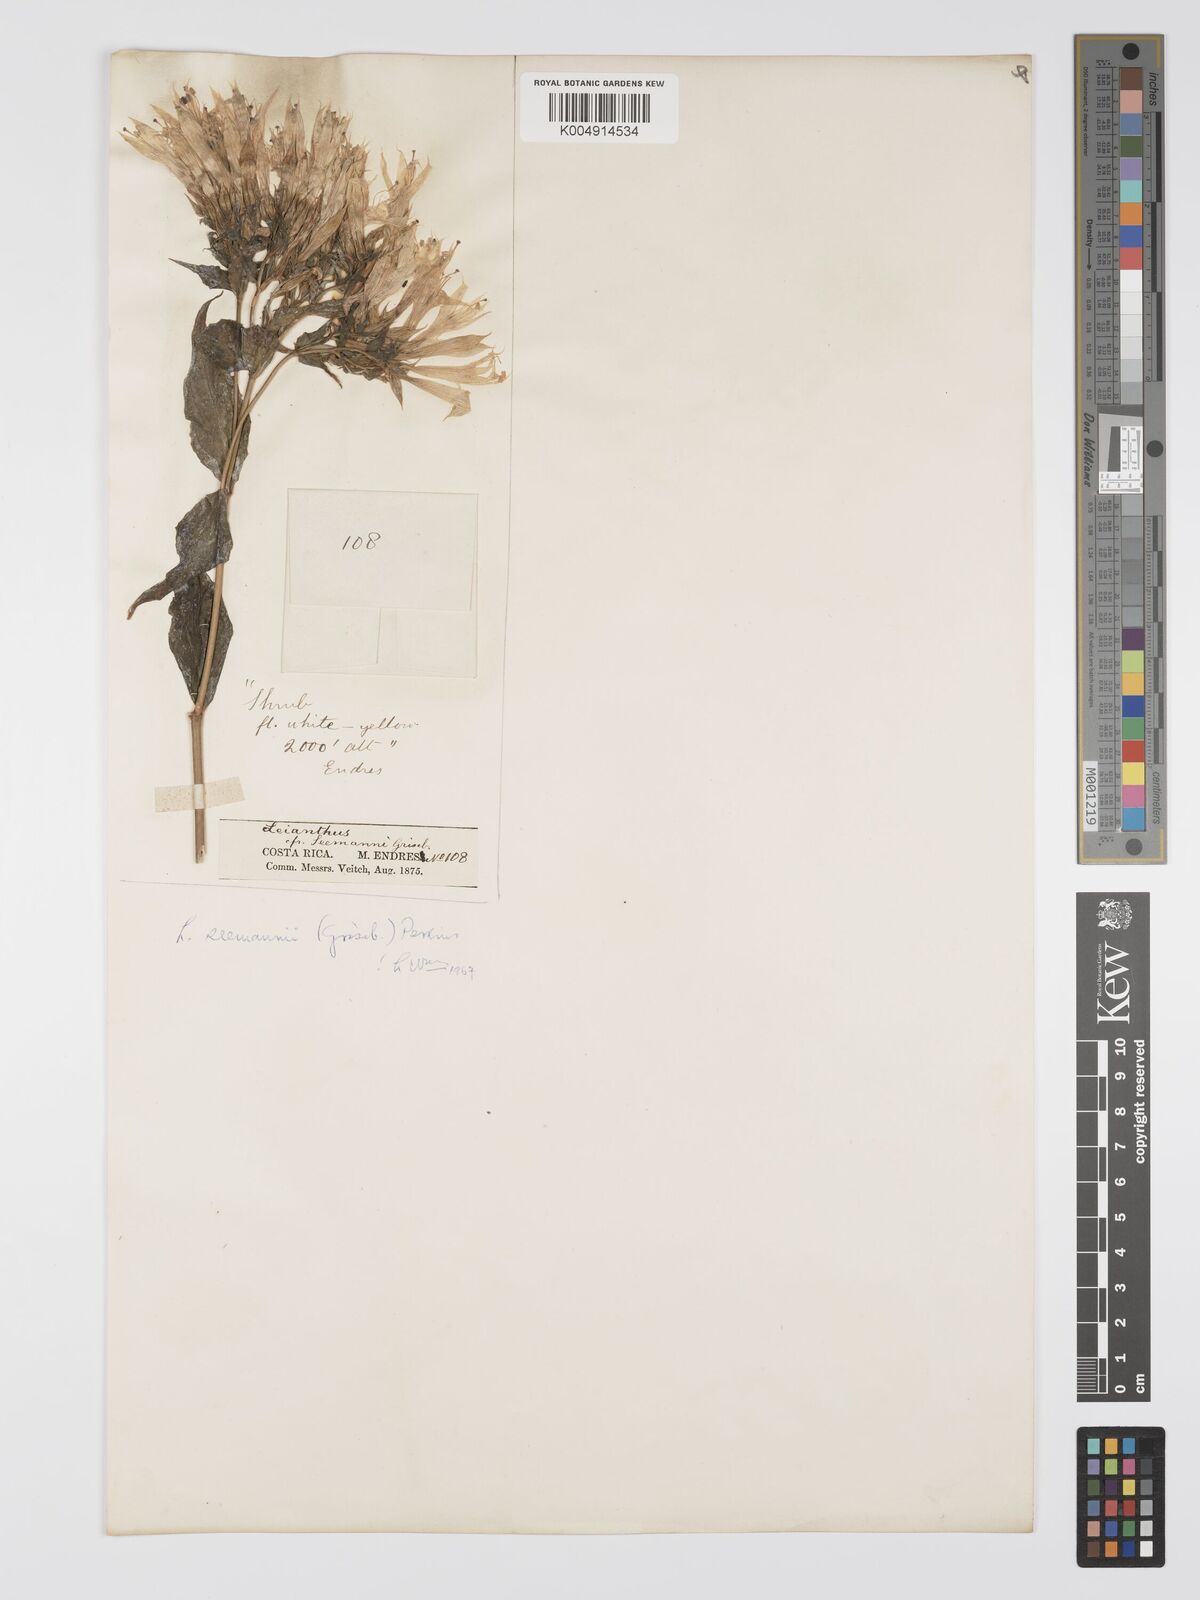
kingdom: Plantae
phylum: Tracheophyta
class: Magnoliopsida
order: Gentianales
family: Gentianaceae
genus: Lisianthus
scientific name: Lisianthus seemannii
